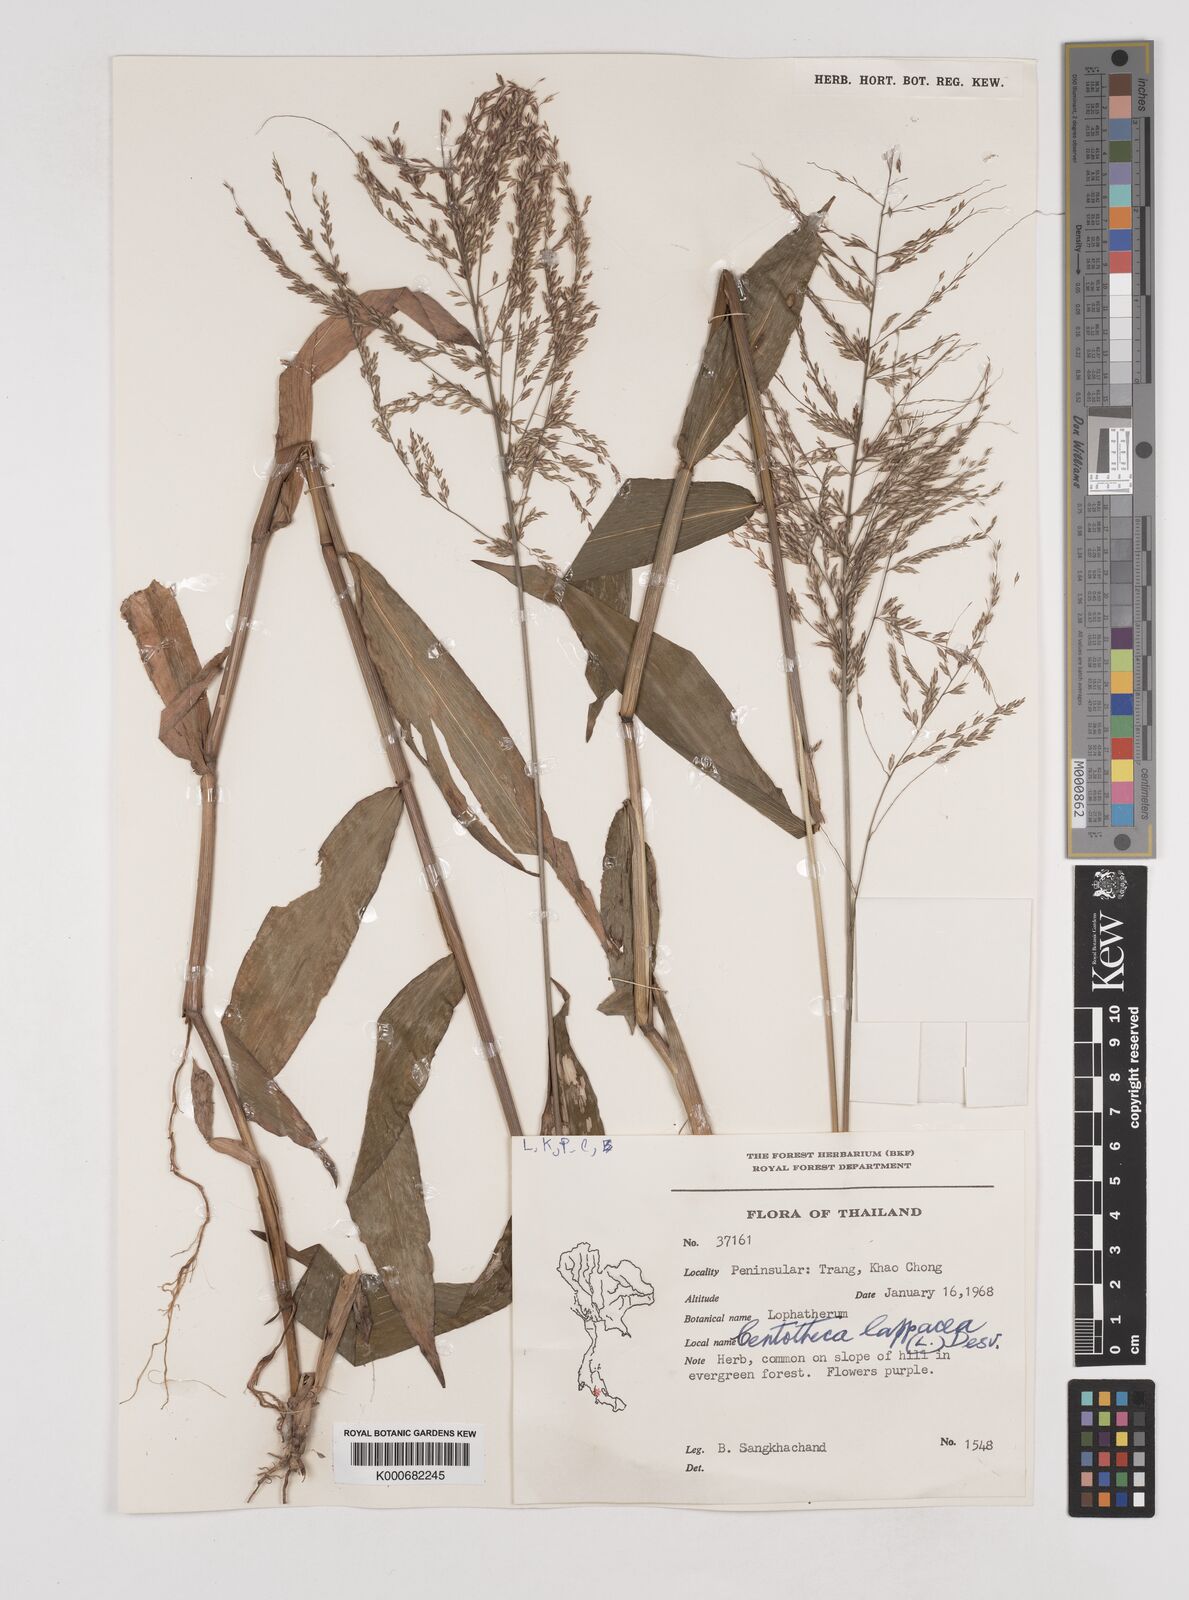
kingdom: Plantae
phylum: Tracheophyta
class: Liliopsida
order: Poales
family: Poaceae
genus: Centotheca
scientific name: Centotheca lappacea
